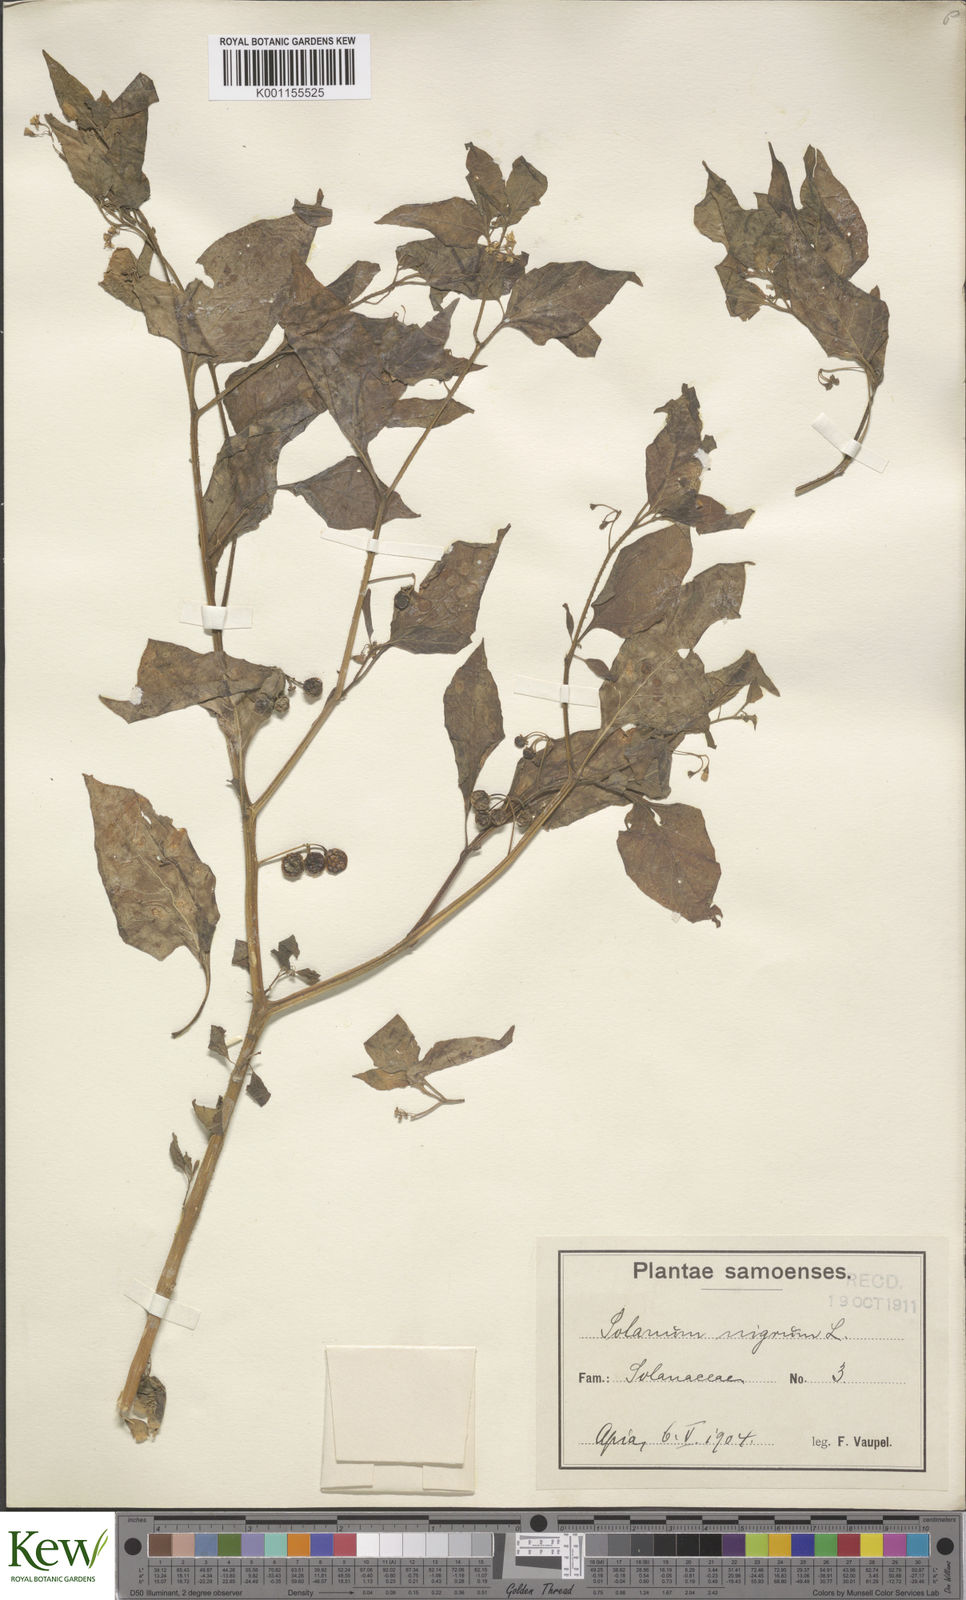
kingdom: Plantae
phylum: Tracheophyta
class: Magnoliopsida
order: Solanales
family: Solanaceae
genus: Solanum
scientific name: Solanum
